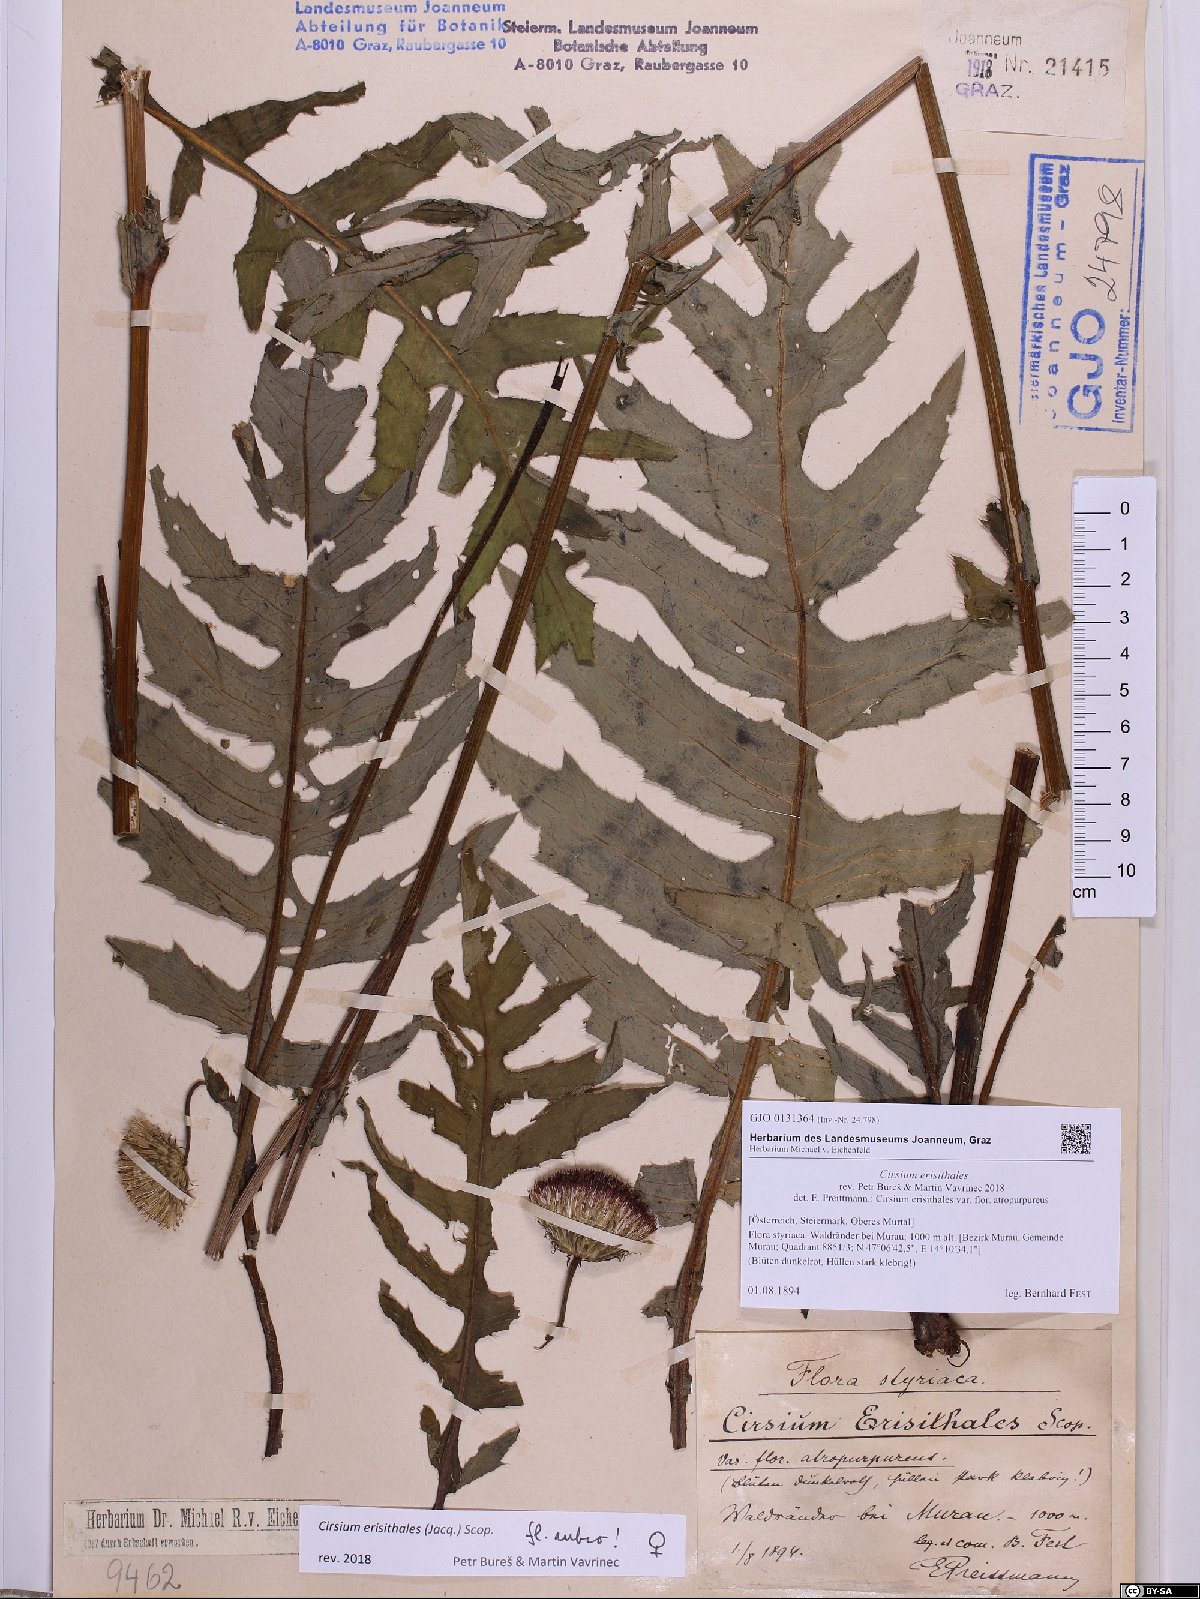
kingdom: Plantae
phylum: Tracheophyta
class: Magnoliopsida
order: Asterales
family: Asteraceae
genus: Cirsium
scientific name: Cirsium erisithales
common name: Yellow thistle
